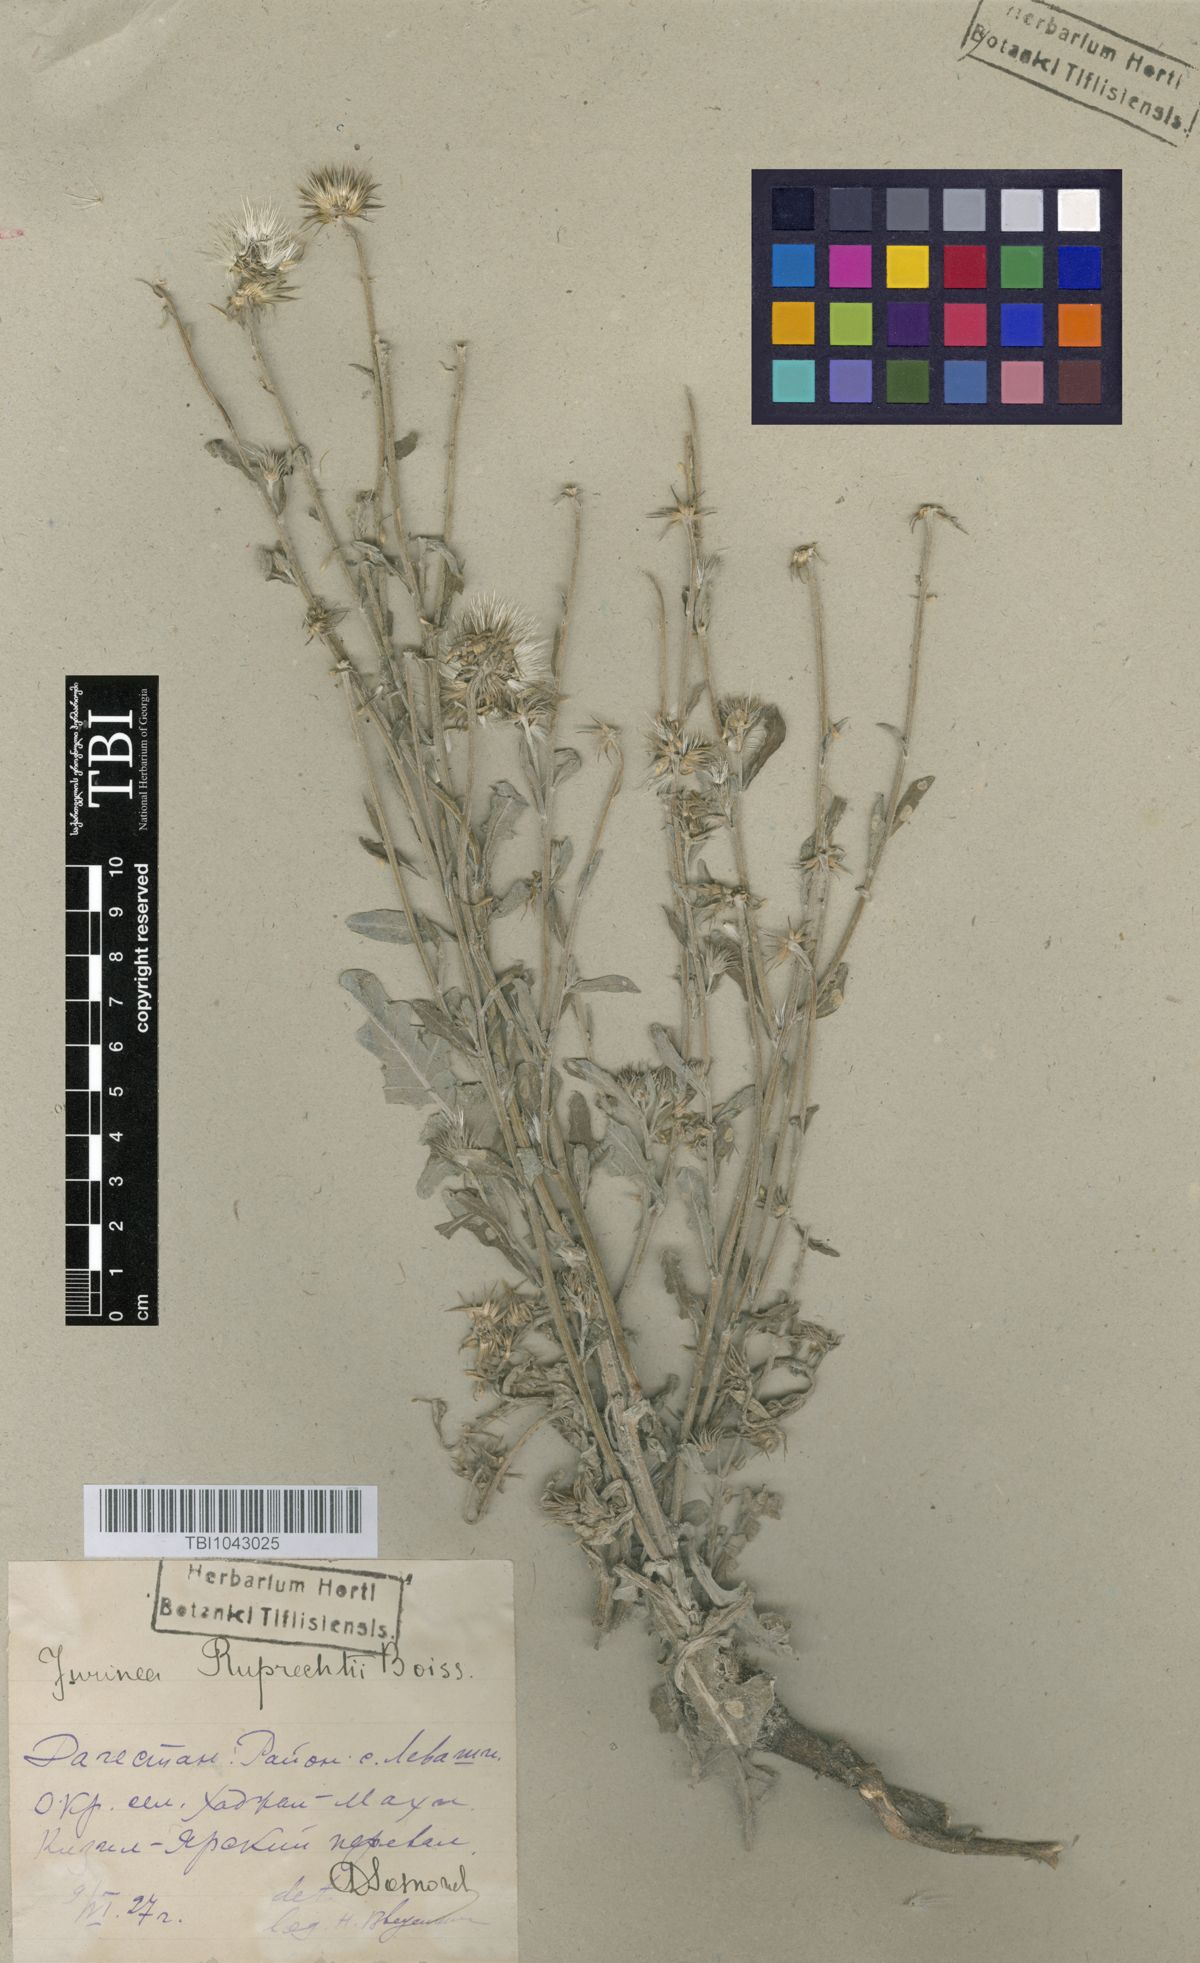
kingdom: Plantae
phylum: Tracheophyta
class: Magnoliopsida
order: Asterales
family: Asteraceae
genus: Jurinea
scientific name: Jurinea ruprechtii
